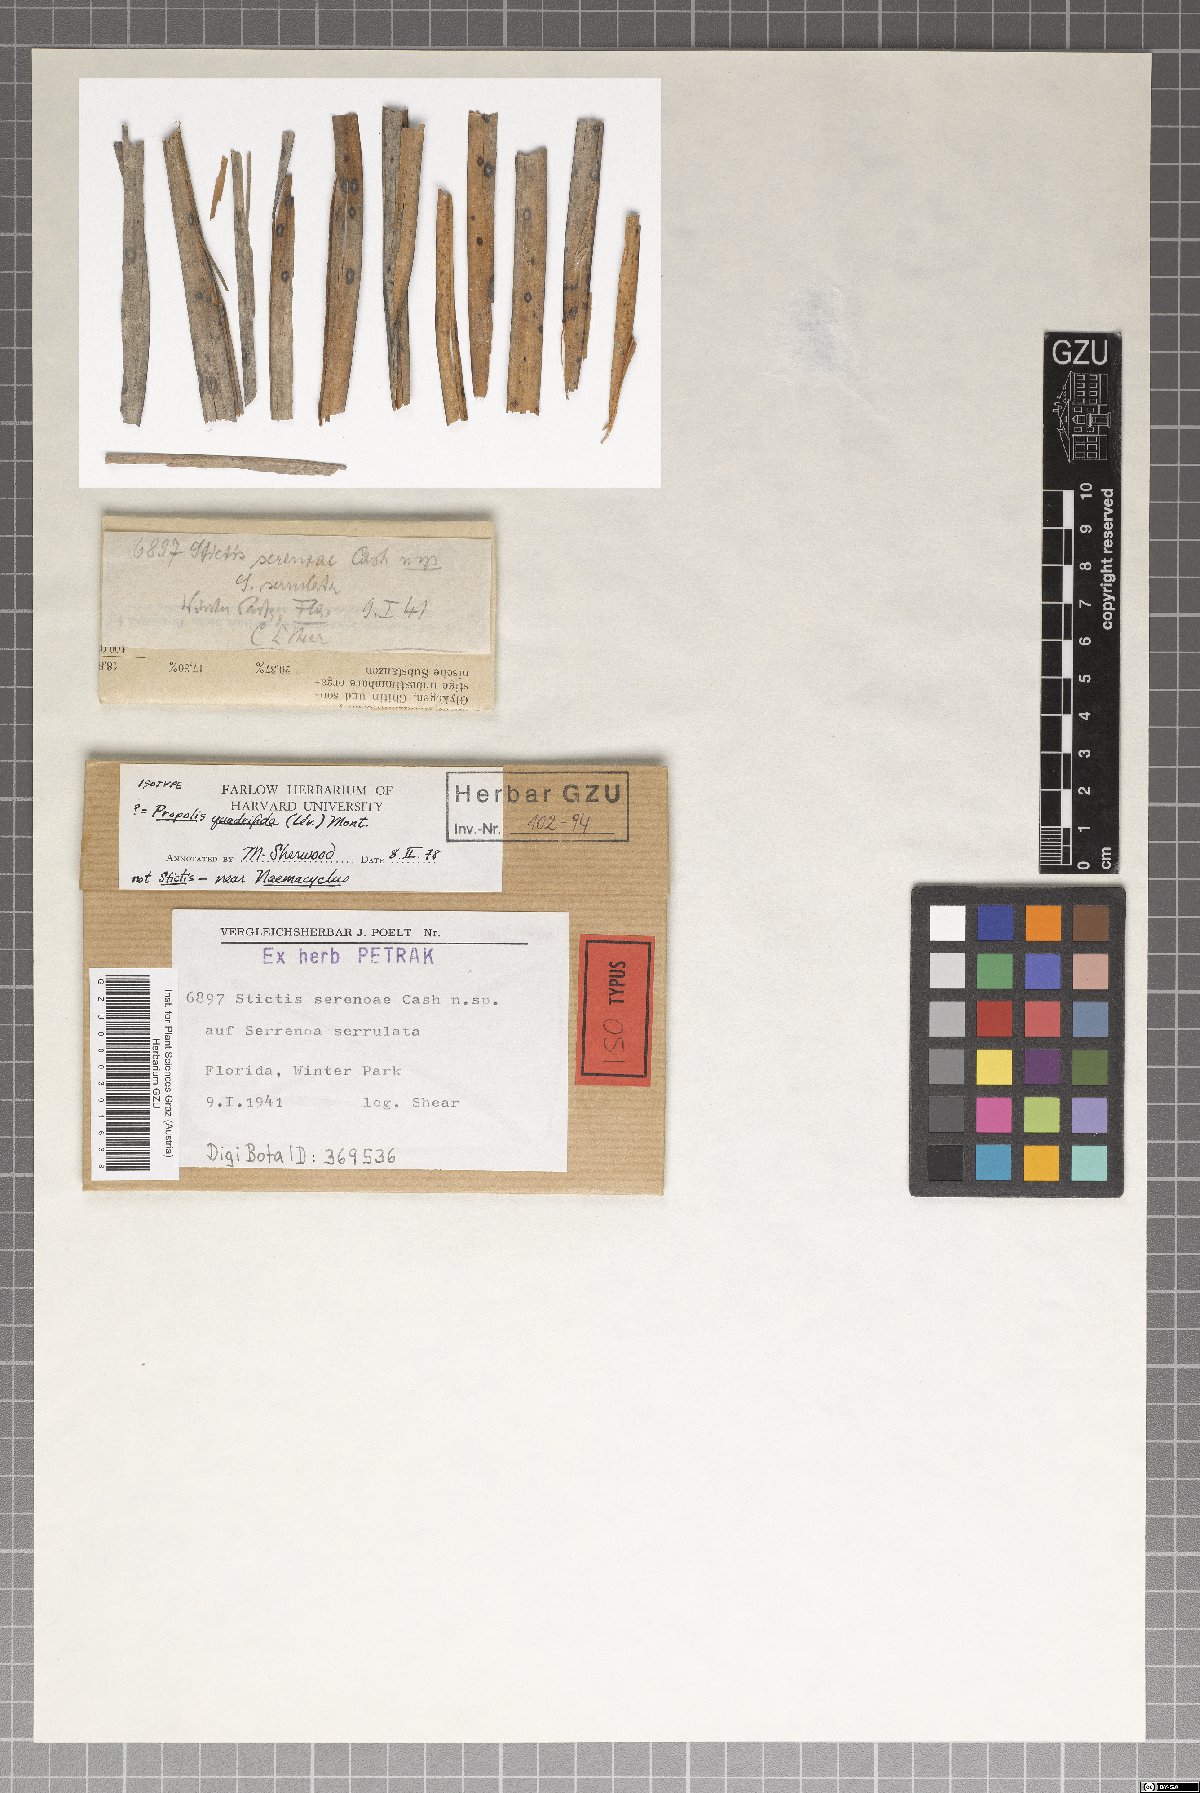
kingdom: Fungi
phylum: Ascomycota
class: Lecanoromycetes
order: Ostropales
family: Stictidaceae
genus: Stictis
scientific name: Stictis serenoae
